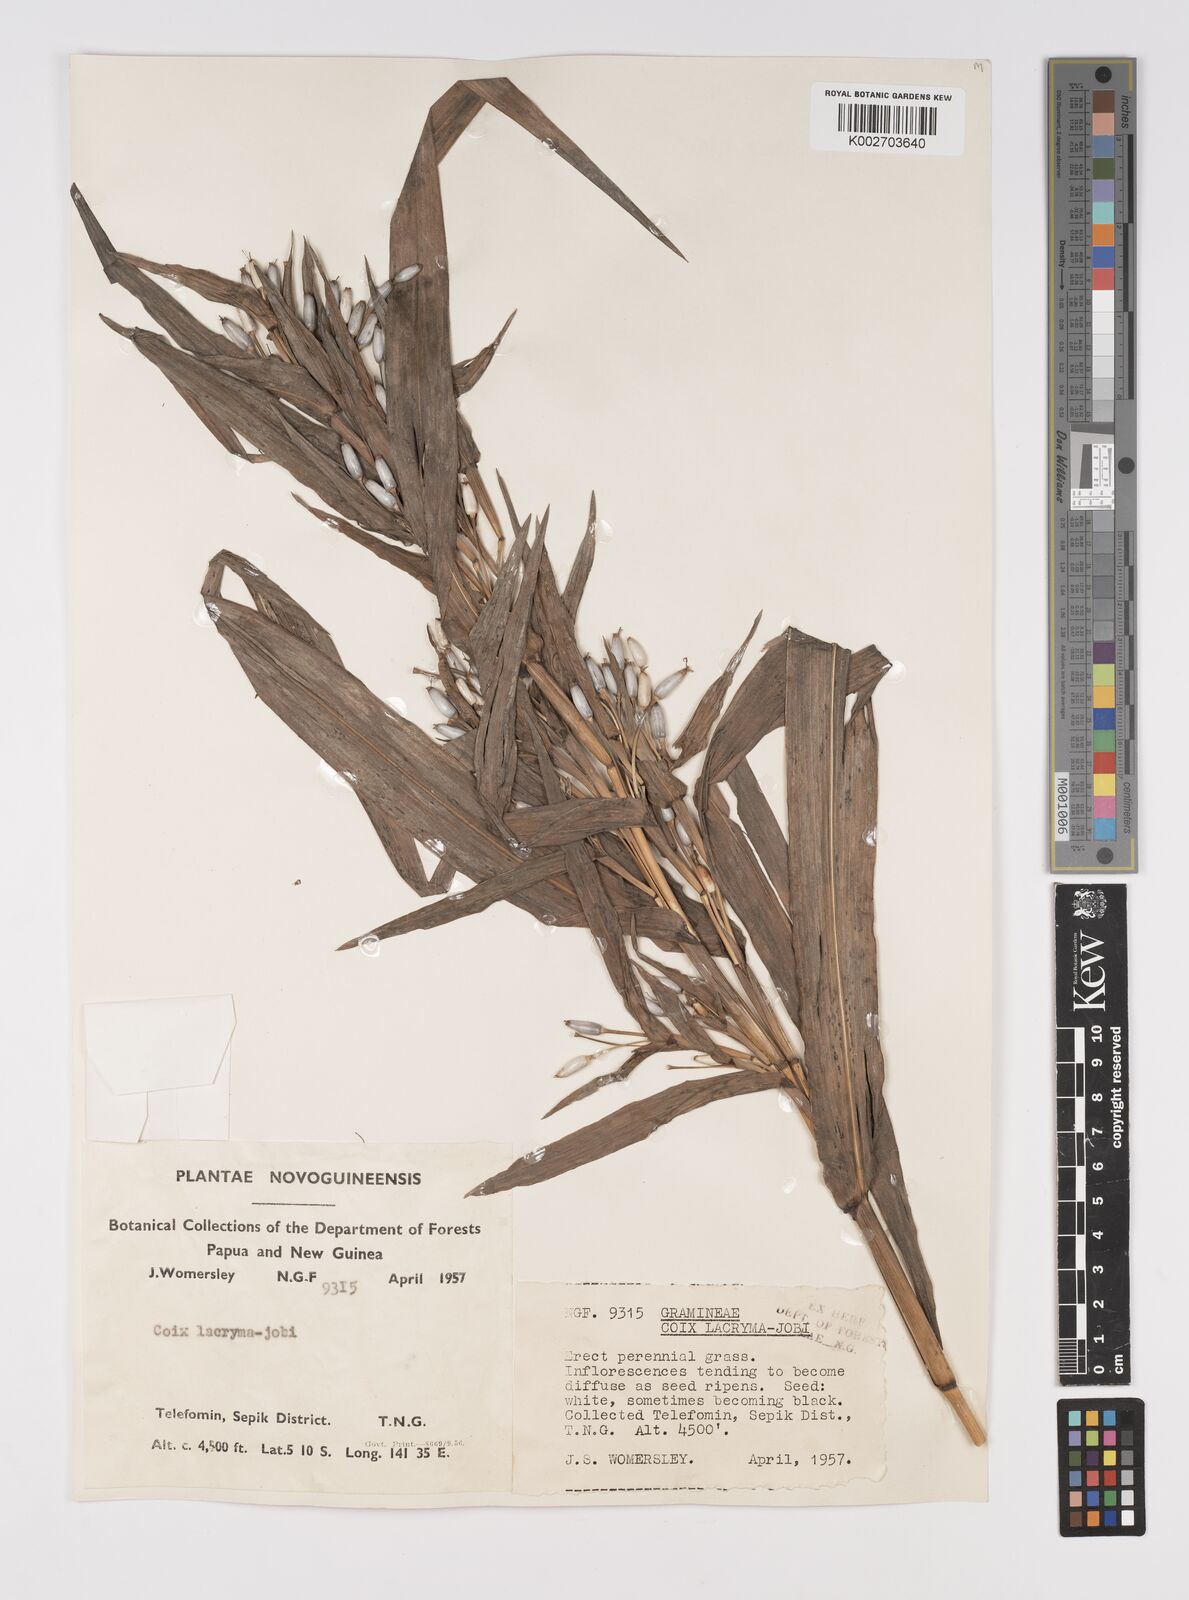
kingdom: Plantae
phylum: Tracheophyta
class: Liliopsida
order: Poales
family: Poaceae
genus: Coix
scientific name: Coix lacryma-jobi
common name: Job's tears
